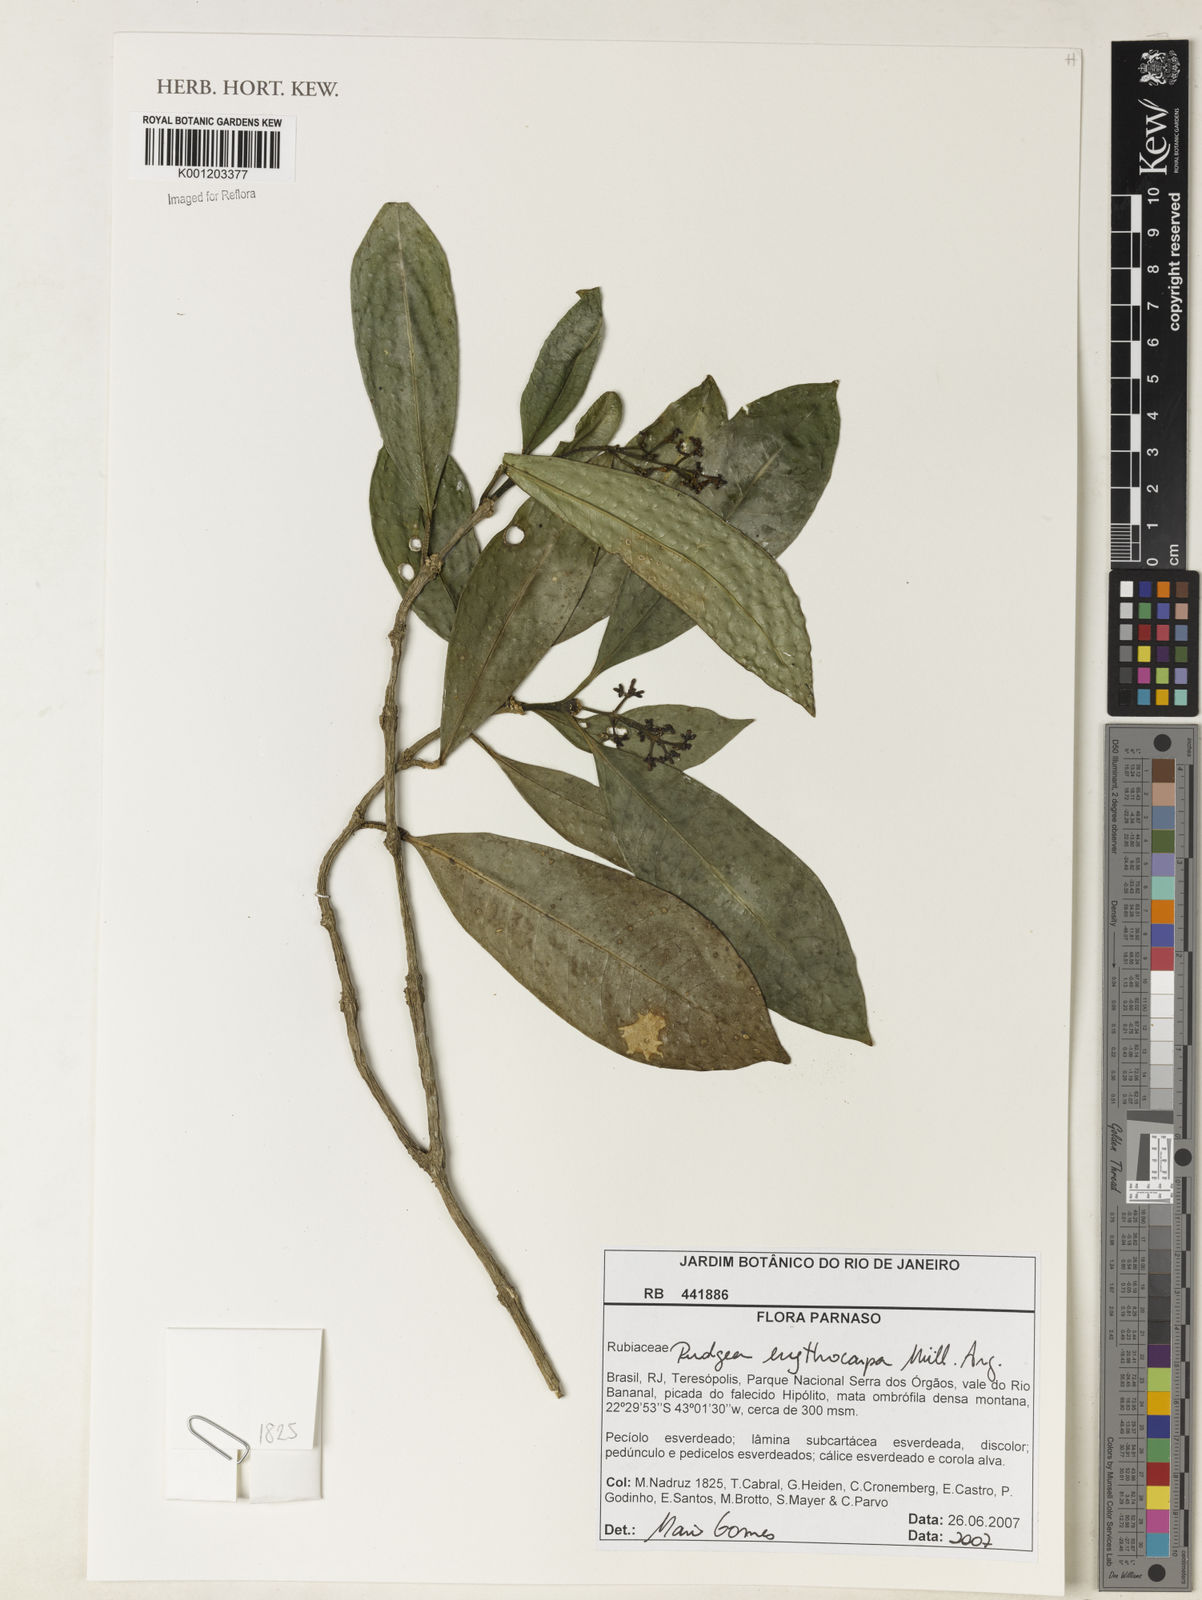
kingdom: Plantae
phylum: Tracheophyta
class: Magnoliopsida
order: Gentianales
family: Rubiaceae
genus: Rudgea
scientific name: Rudgea
